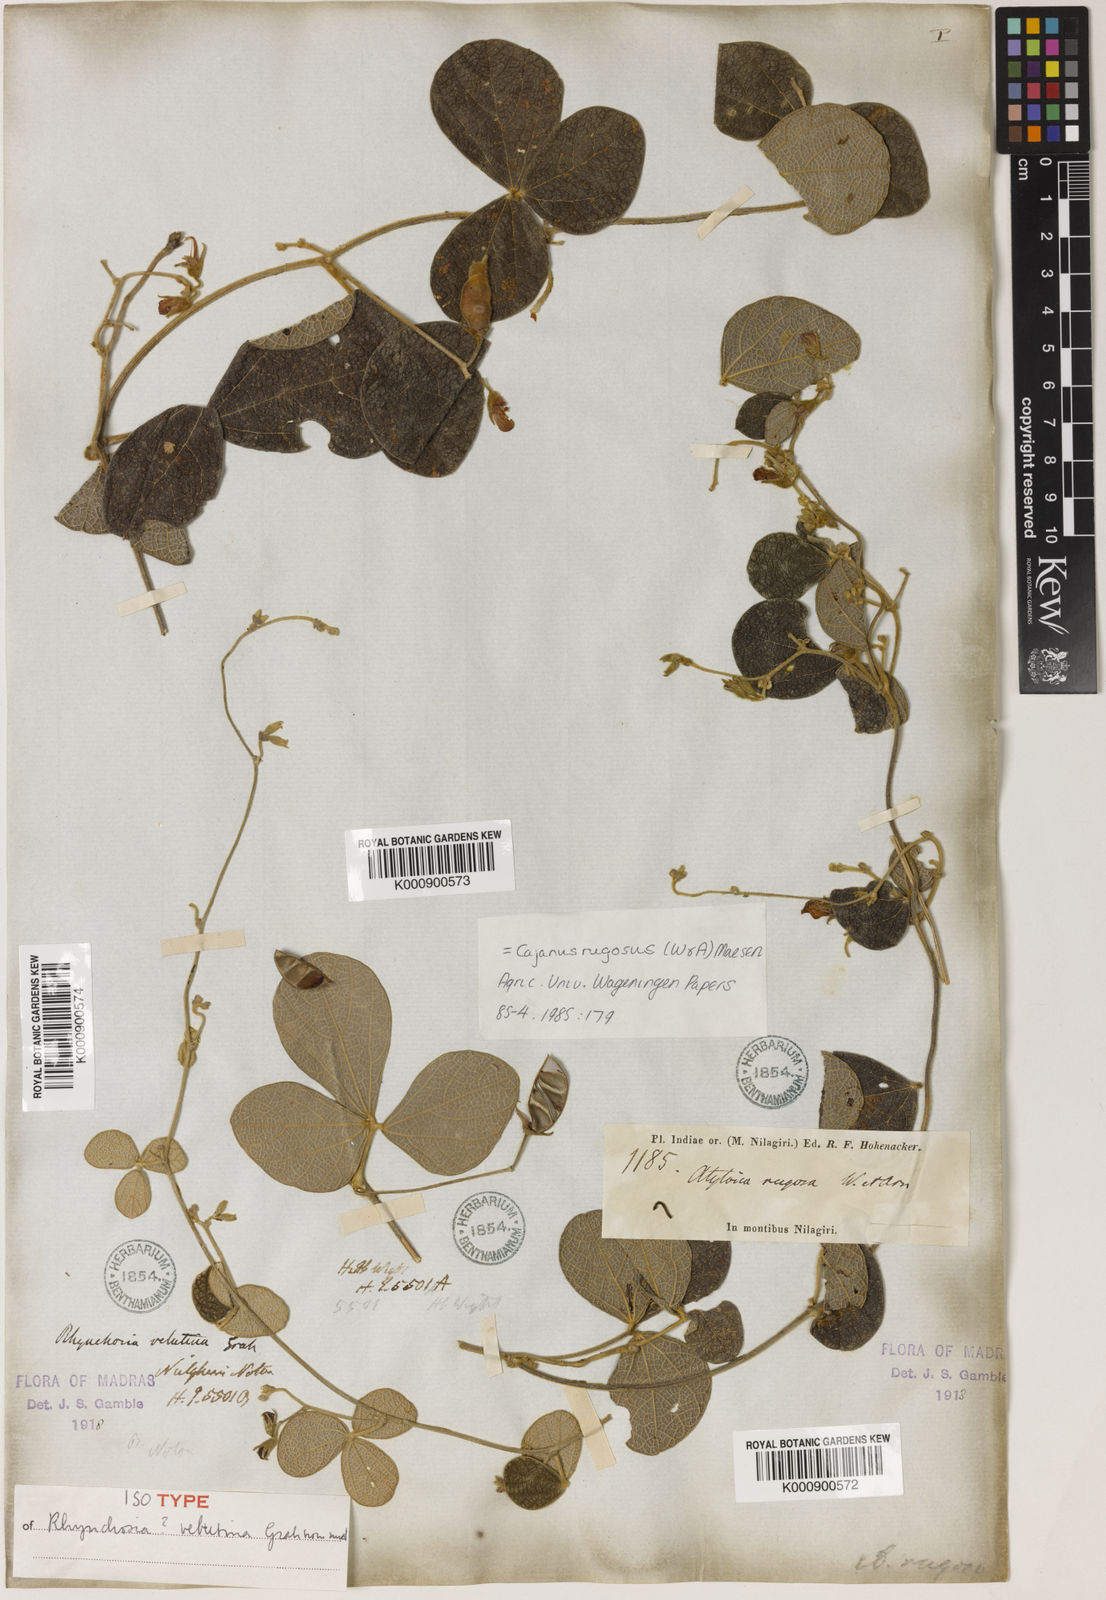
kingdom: Plantae
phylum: Tracheophyta
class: Magnoliopsida
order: Fabales
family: Fabaceae
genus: Cajanus
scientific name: Cajanus rugosus
